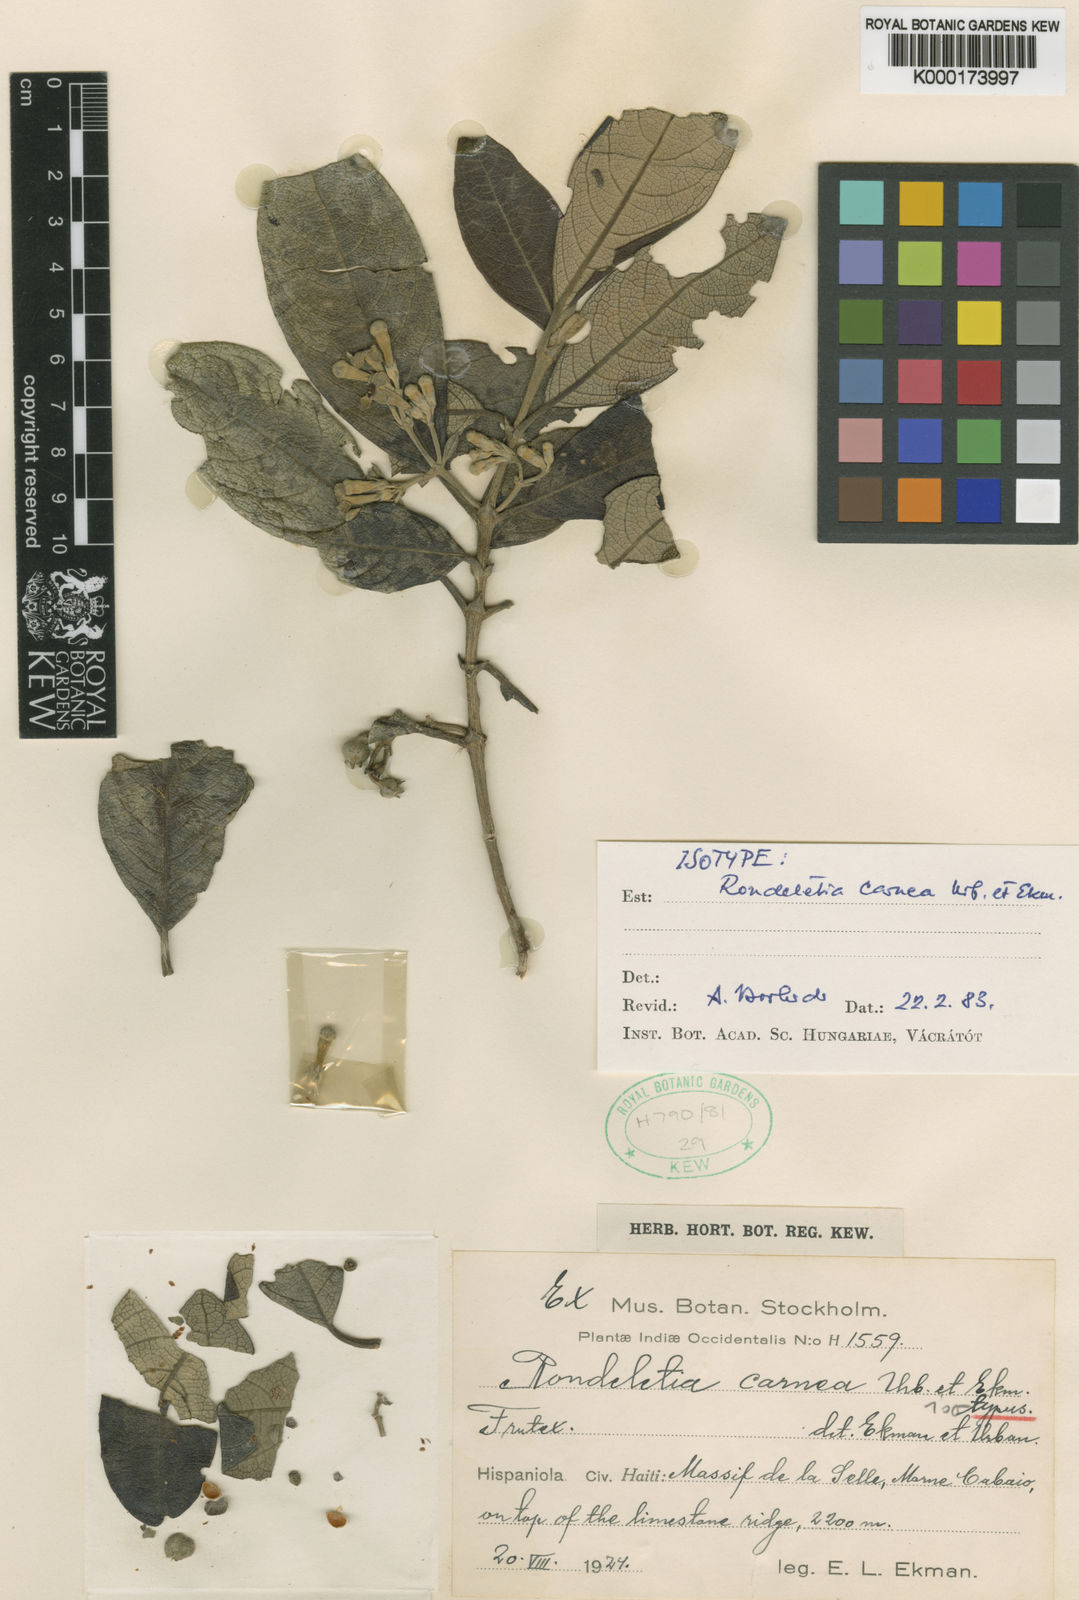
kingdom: Plantae
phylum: Tracheophyta
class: Magnoliopsida
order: Gentianales
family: Rubiaceae
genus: Rondeletia
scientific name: Rondeletia carnea
